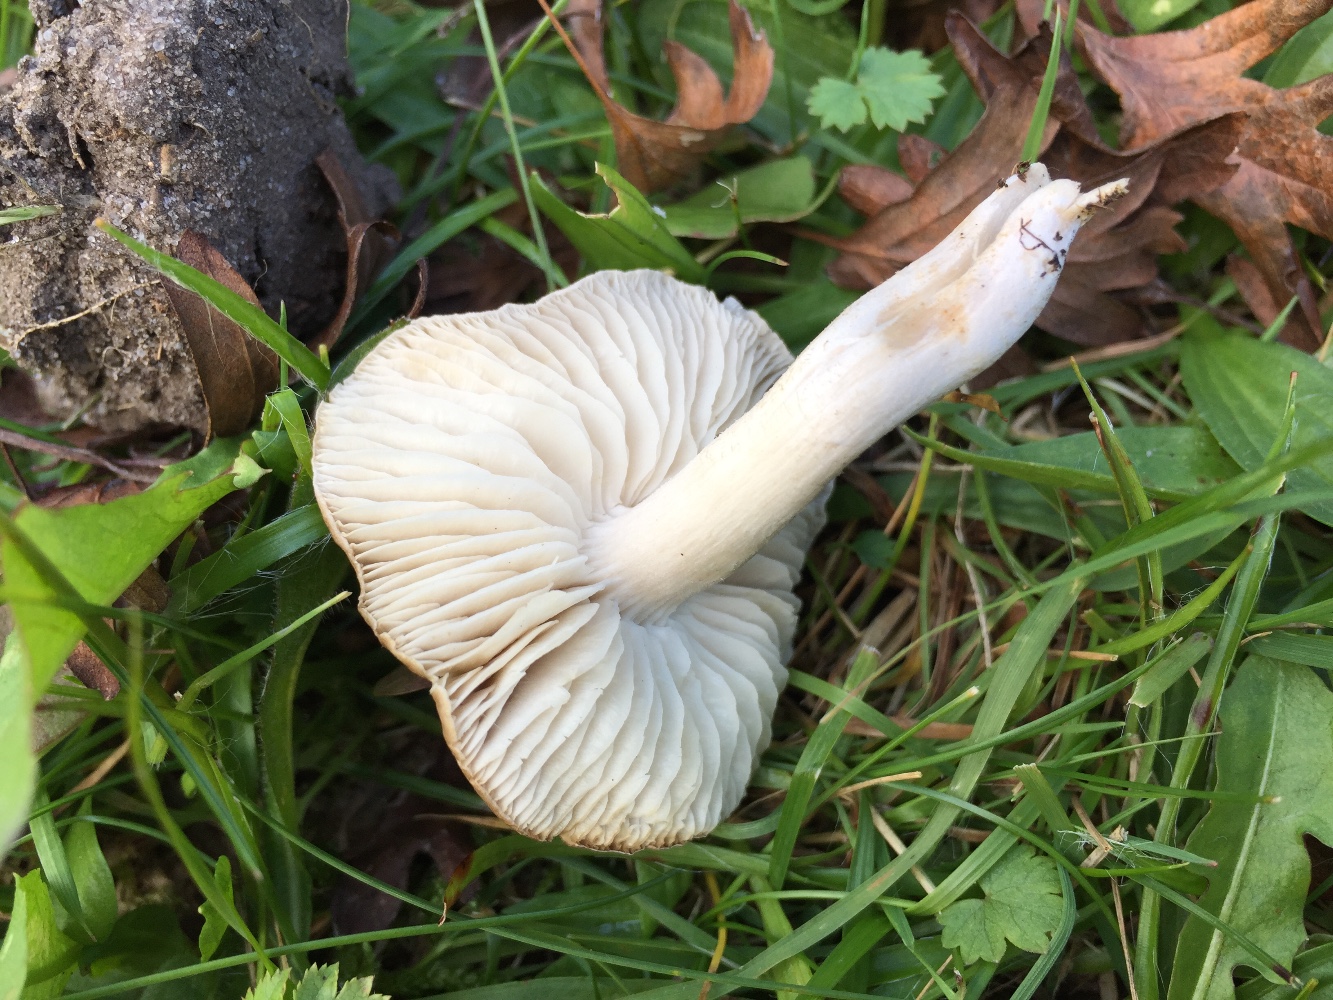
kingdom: Fungi
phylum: Basidiomycota
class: Agaricomycetes
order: Agaricales
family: Tricholomataceae
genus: Dermoloma
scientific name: Dermoloma cuneifolium
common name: eng-nonnehat
